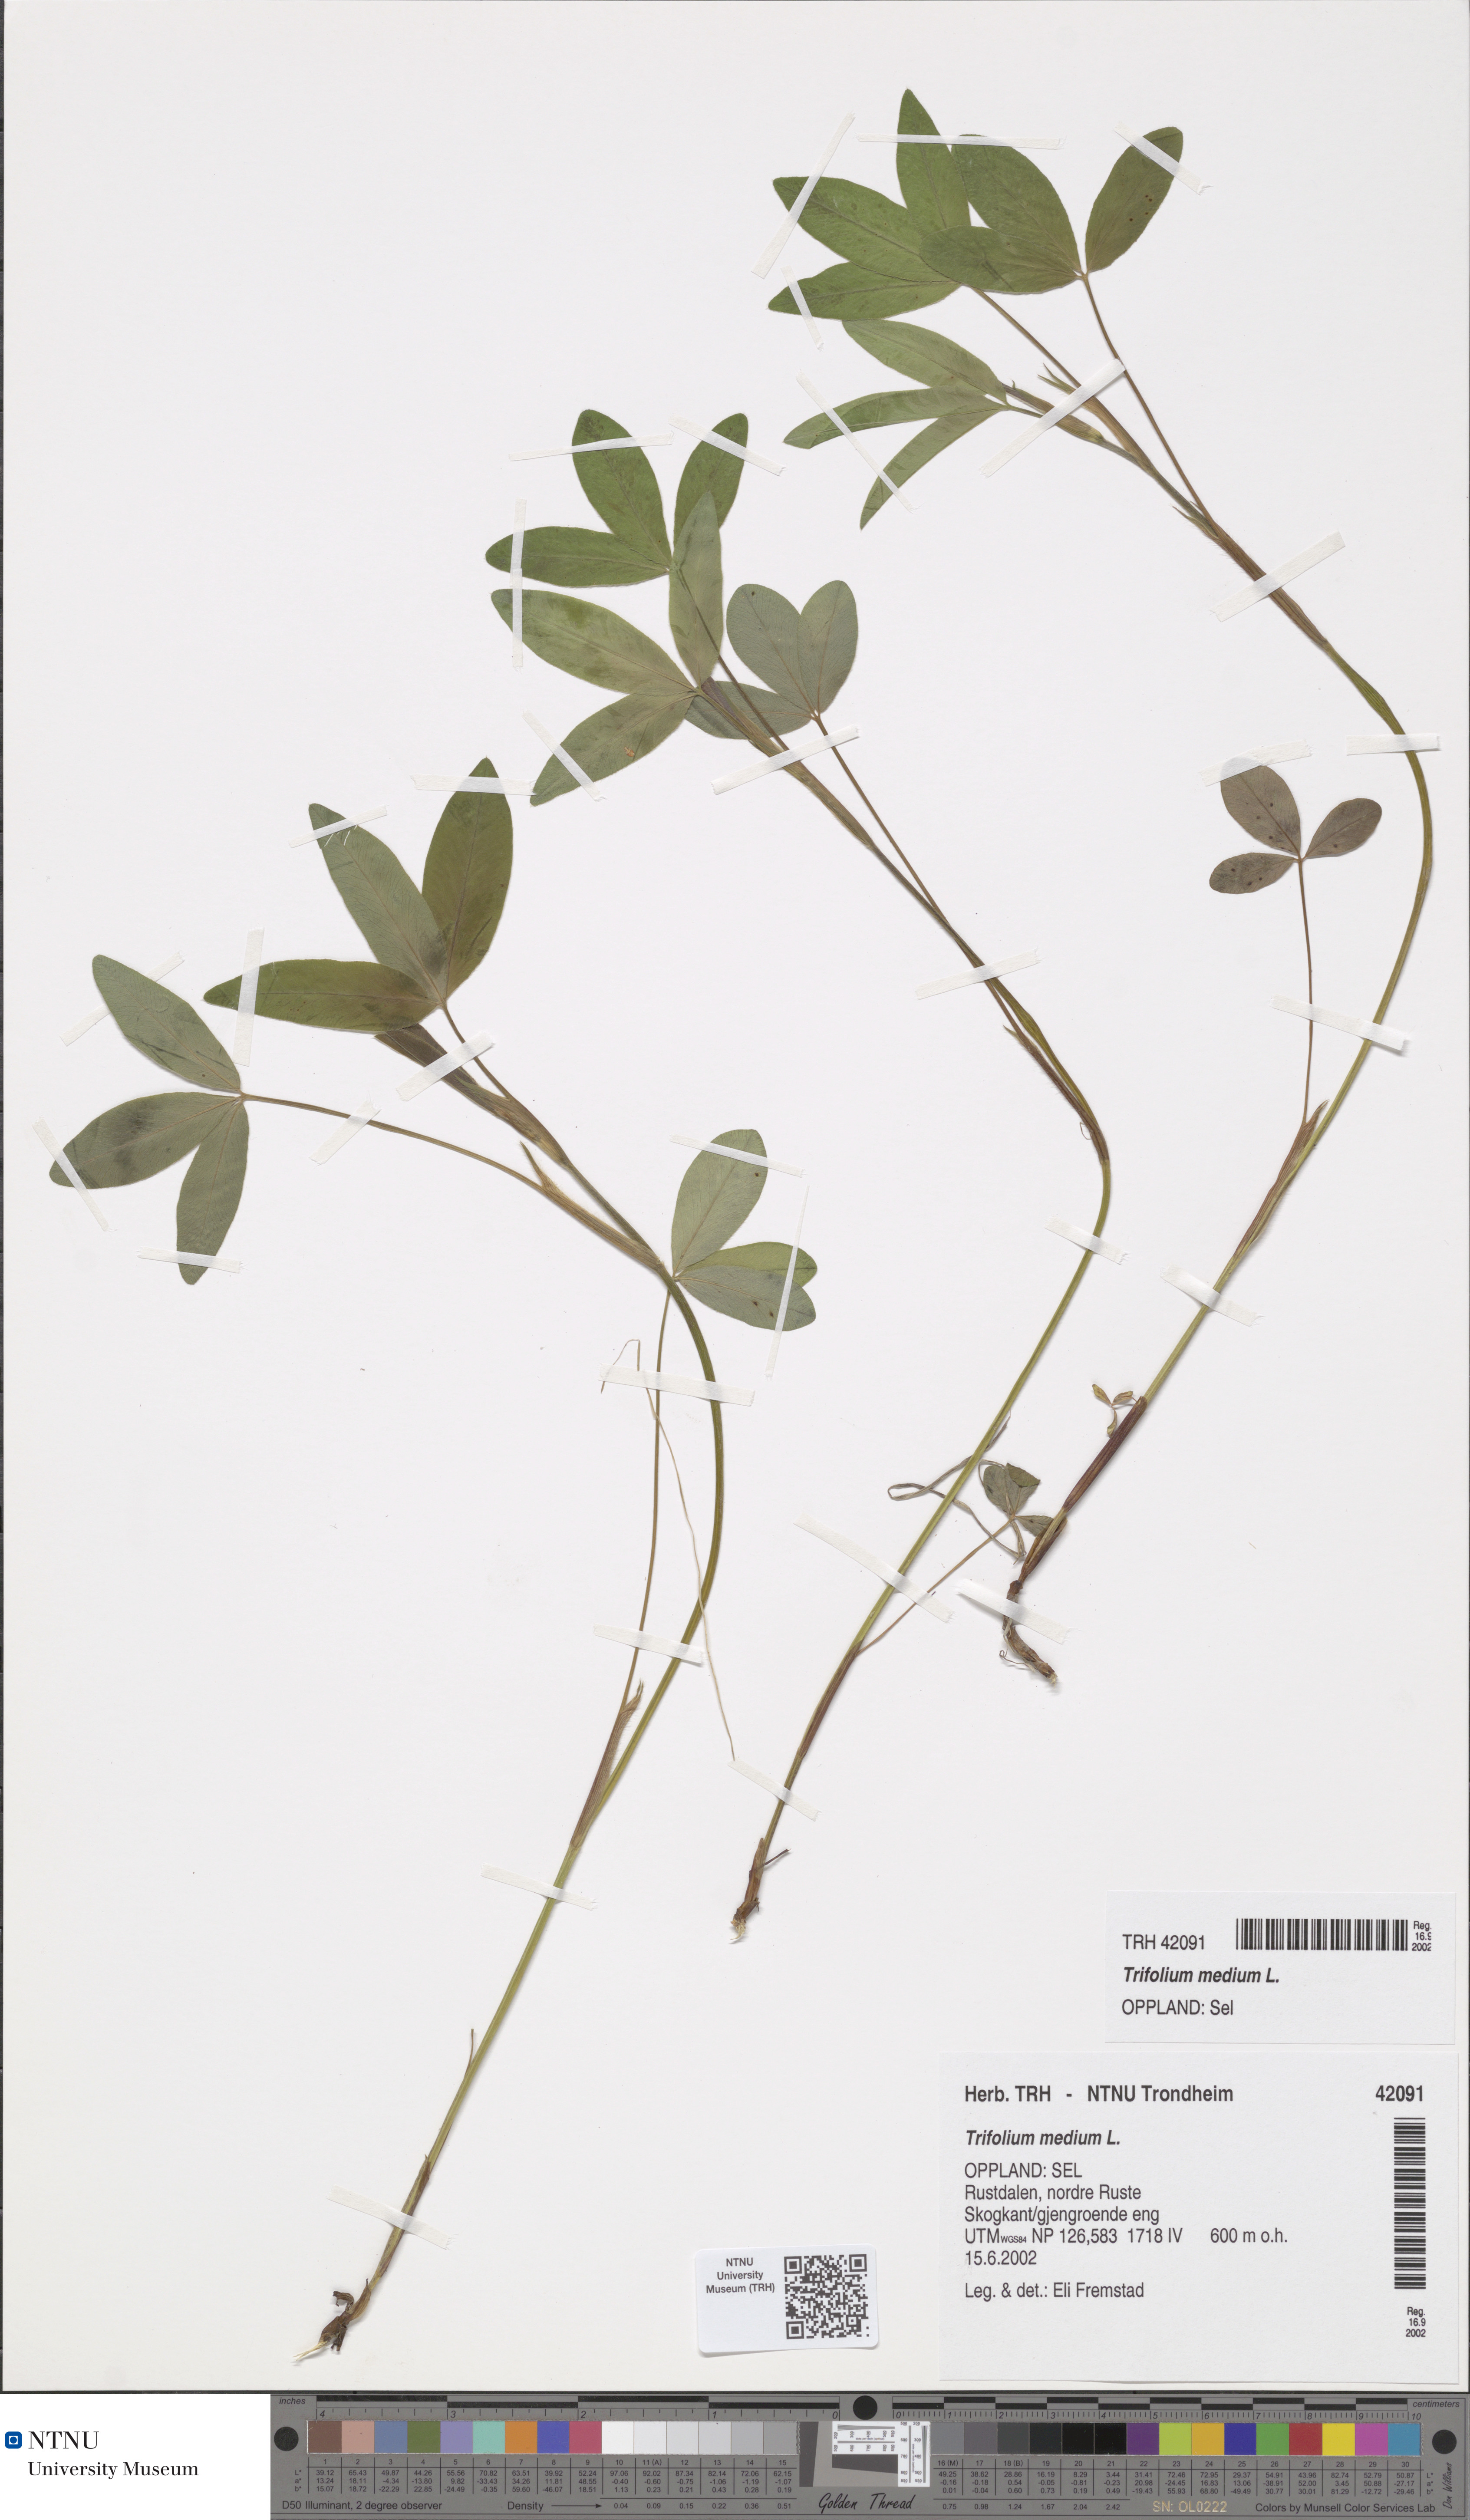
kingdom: Plantae
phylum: Tracheophyta
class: Magnoliopsida
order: Fabales
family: Fabaceae
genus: Trifolium
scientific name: Trifolium medium
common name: Zigzag clover
